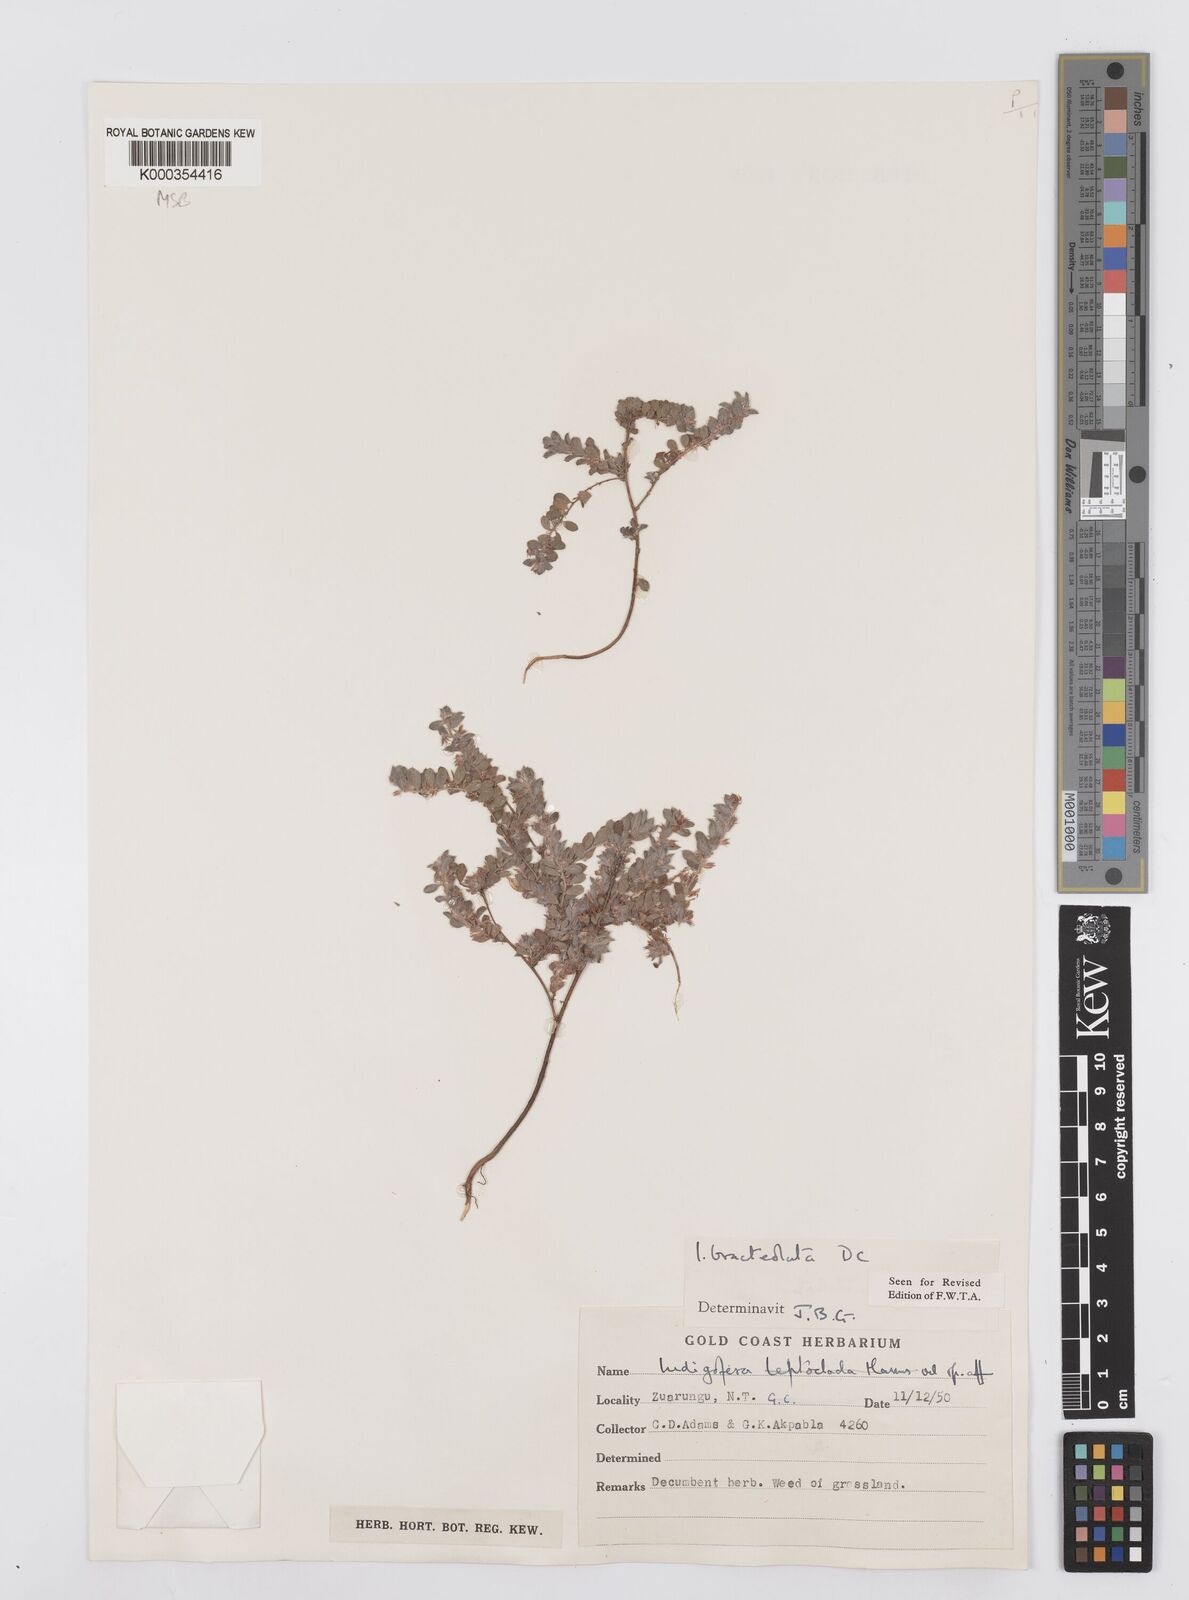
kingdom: Plantae
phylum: Tracheophyta
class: Magnoliopsida
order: Fabales
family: Fabaceae
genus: Indigofera
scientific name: Indigofera bracteolata
